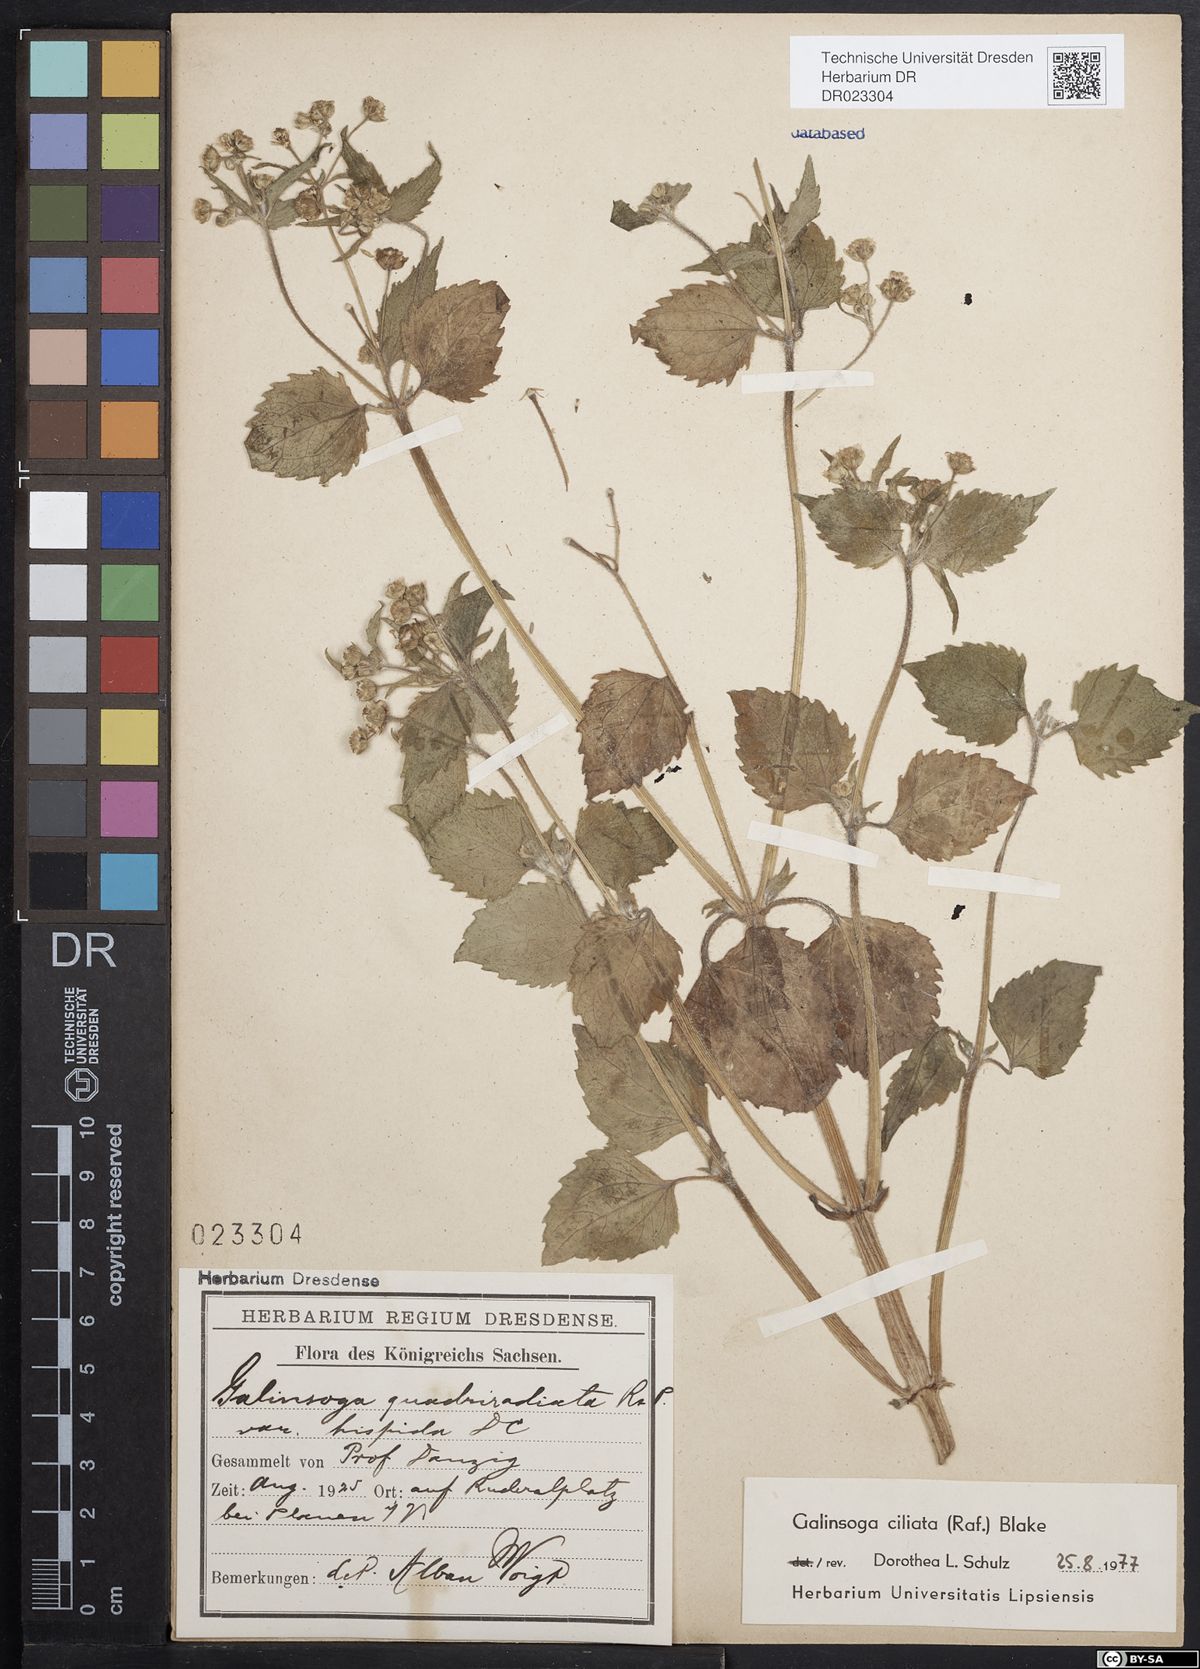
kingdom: Plantae
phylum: Tracheophyta
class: Magnoliopsida
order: Asterales
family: Asteraceae
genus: Galinsoga
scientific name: Galinsoga quadriradiata
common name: Shaggy soldier
